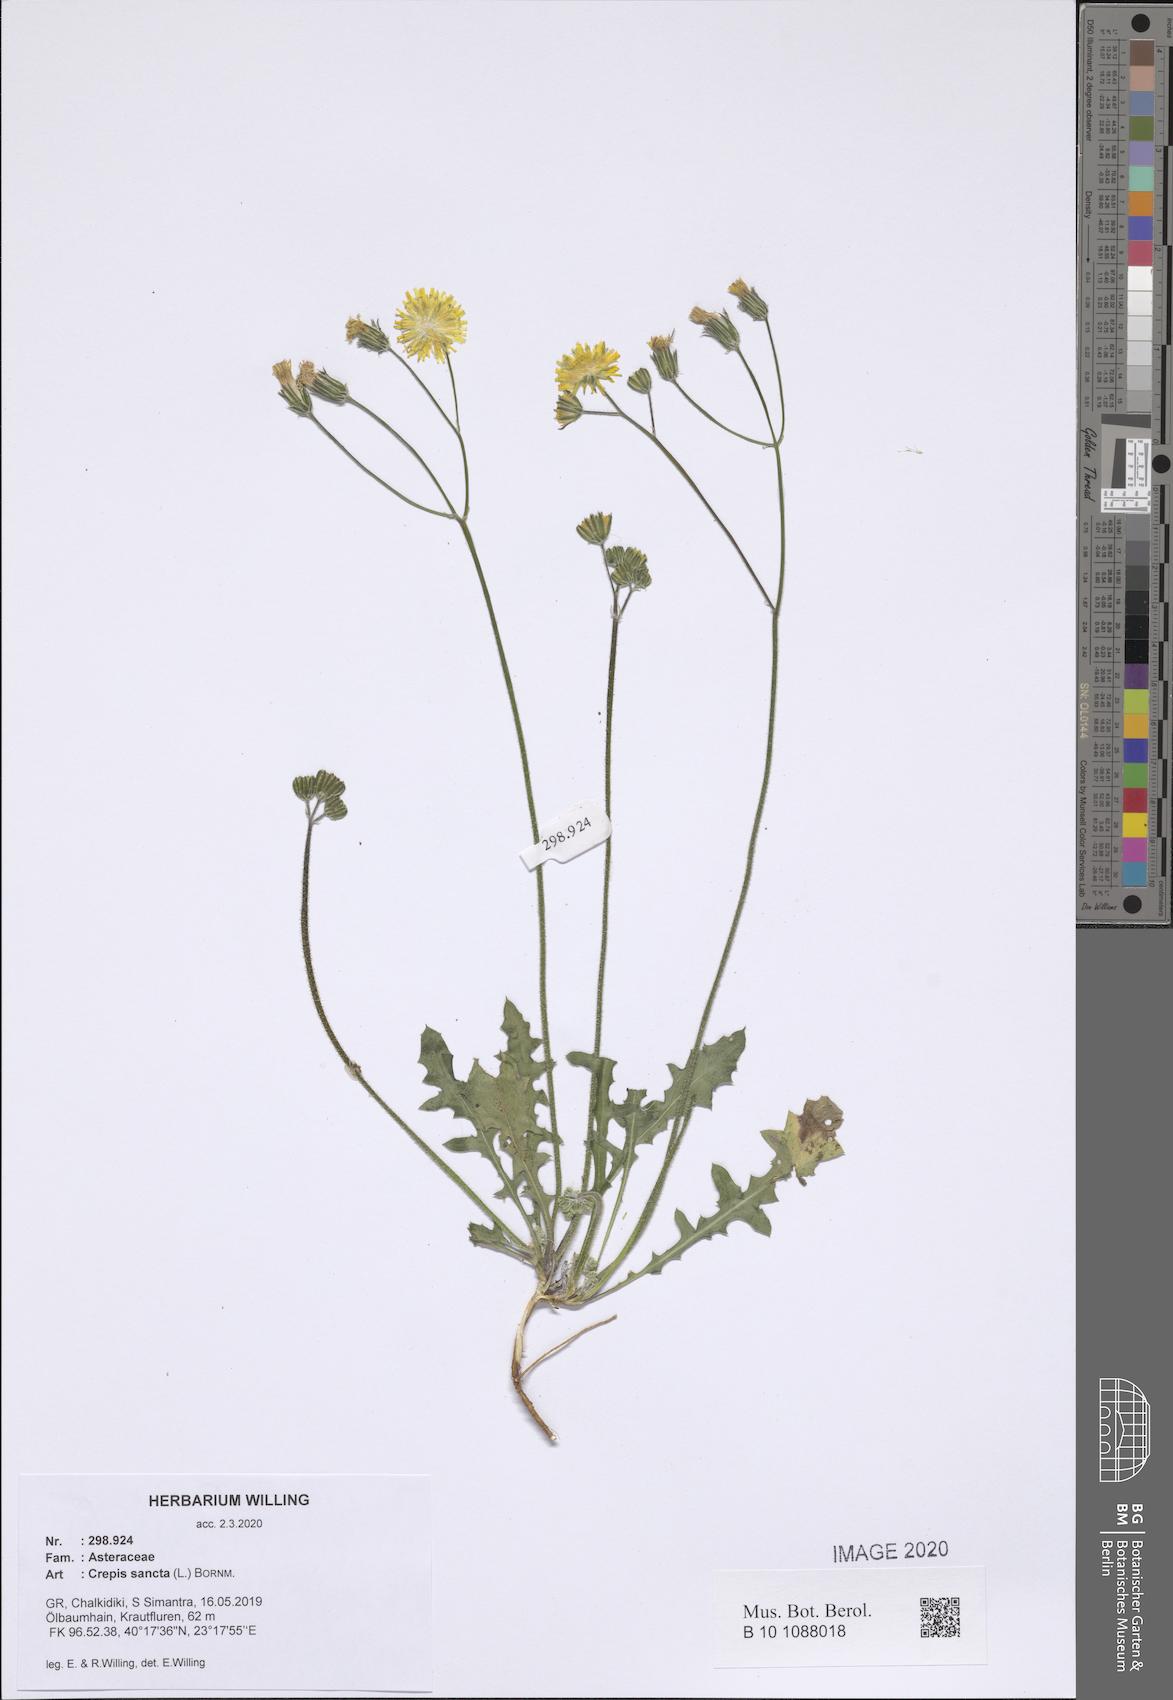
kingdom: Plantae
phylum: Tracheophyta
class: Magnoliopsida
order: Asterales
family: Asteraceae
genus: Crepis
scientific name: Crepis sancta
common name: Hawk's-beard
